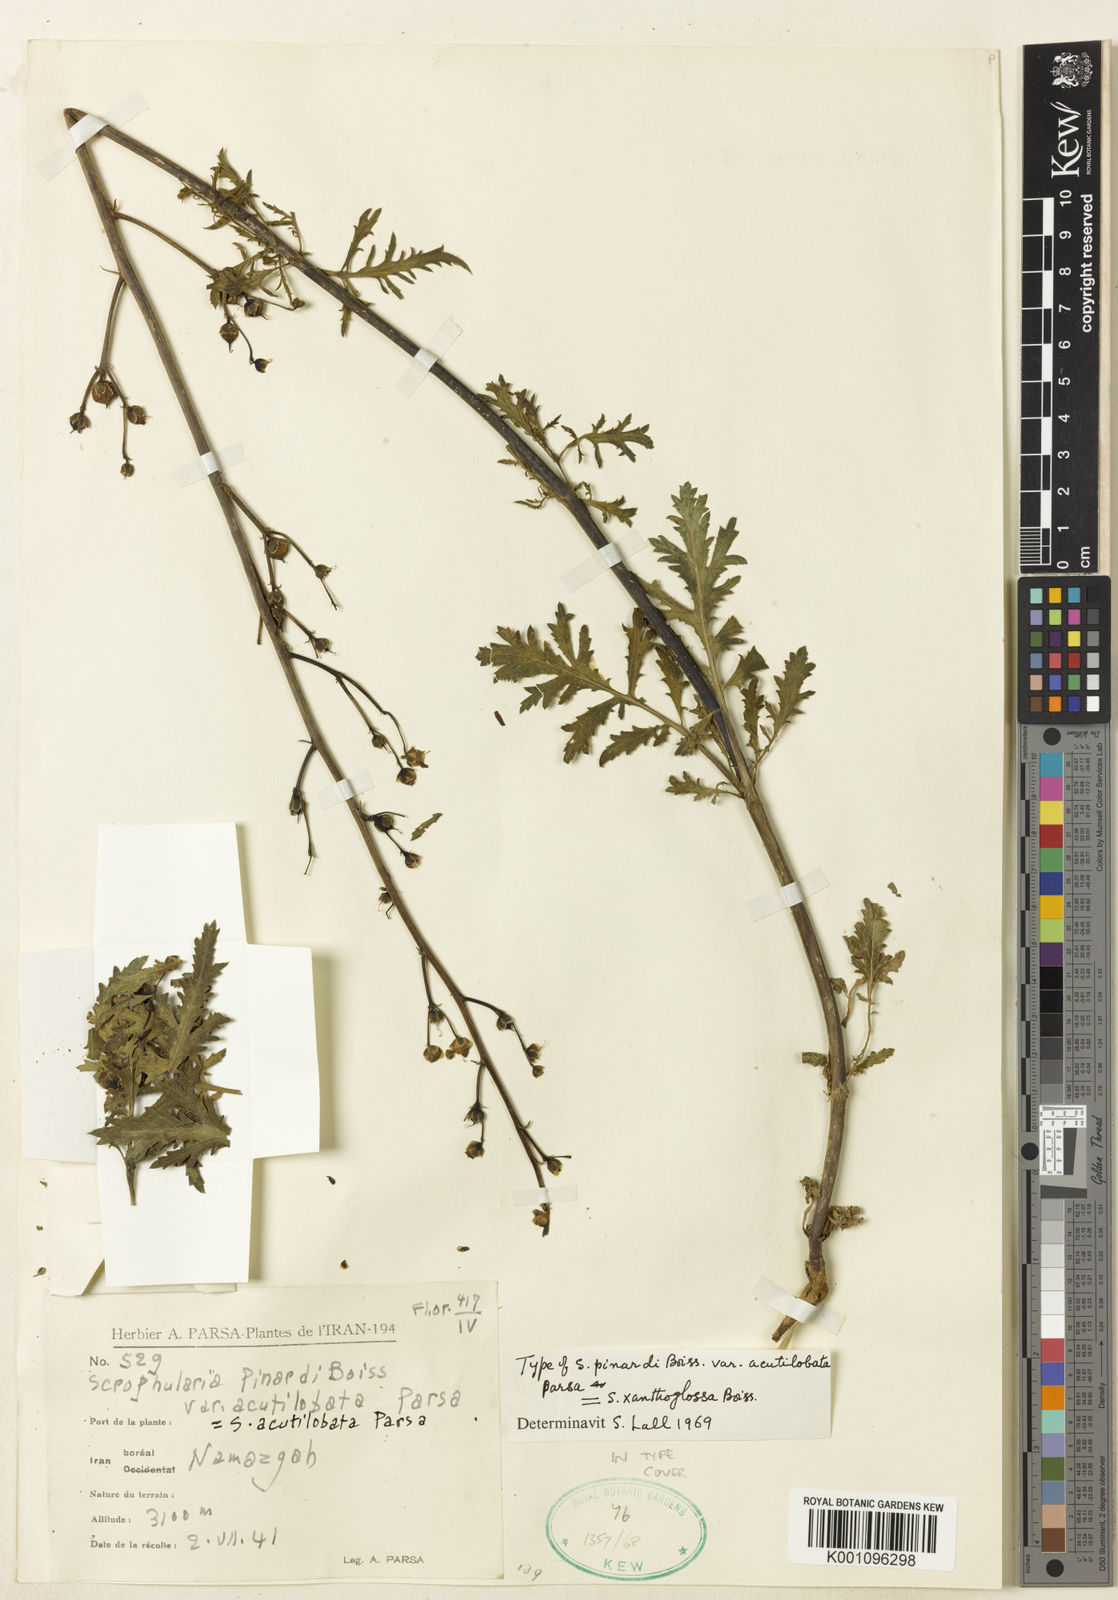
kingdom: Plantae
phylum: Tracheophyta
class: Magnoliopsida
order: Lamiales
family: Scrophulariaceae
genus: Scrophularia
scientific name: Scrophularia pinardii
